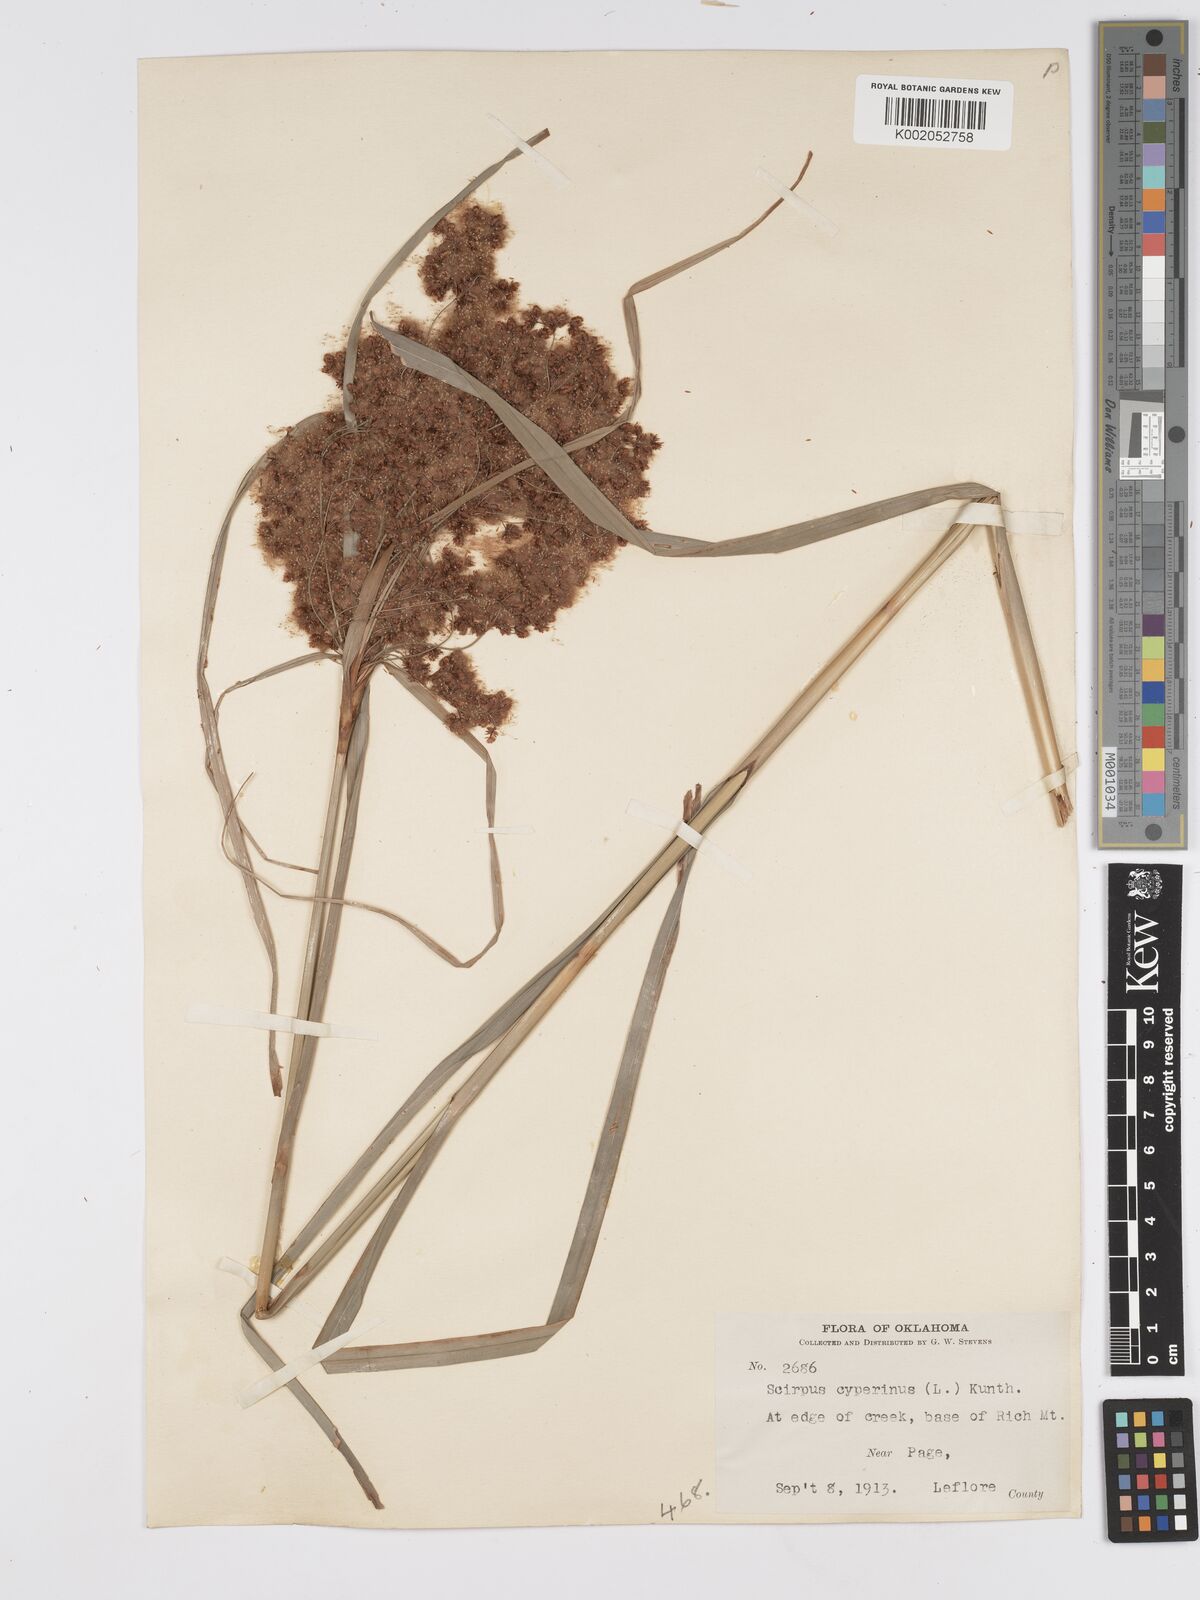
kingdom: Plantae
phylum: Tracheophyta
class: Liliopsida
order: Poales
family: Cyperaceae
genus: Scirpus
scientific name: Scirpus cyperinus
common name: Black-sheathed bulrush
